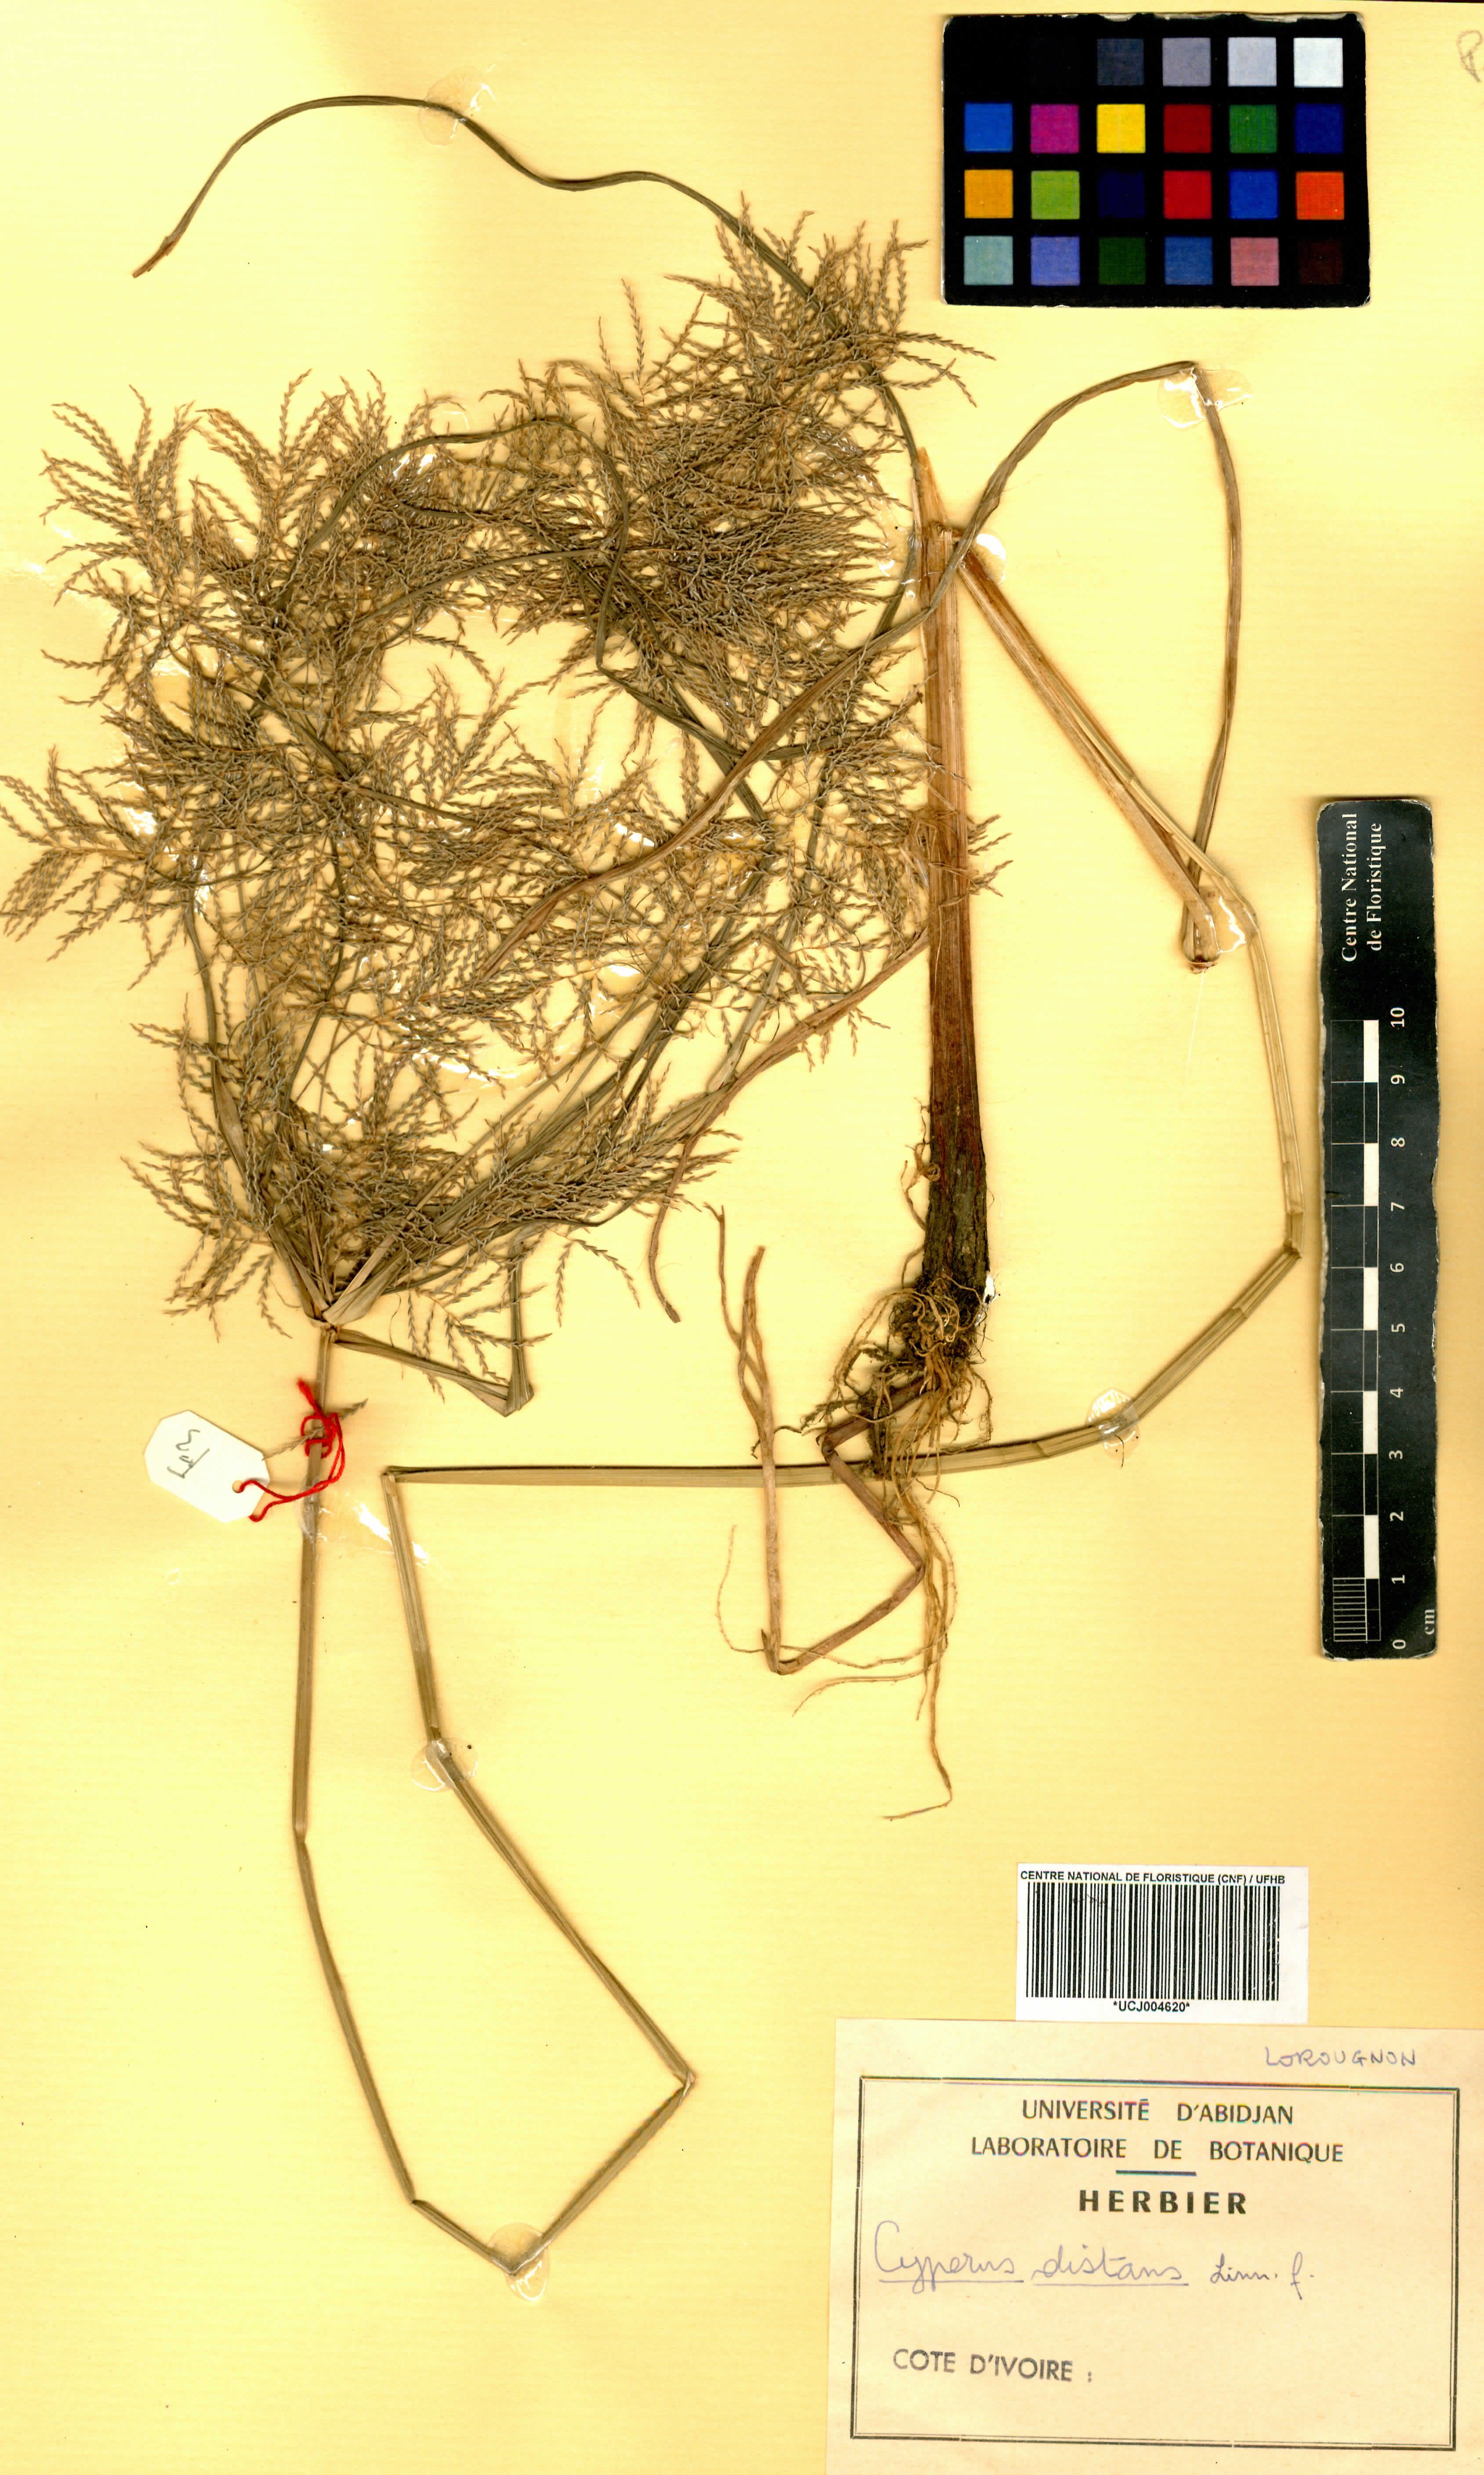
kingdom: Plantae
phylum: Tracheophyta
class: Liliopsida
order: Poales
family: Cyperaceae
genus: Cyperus
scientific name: Cyperus distans
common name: Slender cyperus
